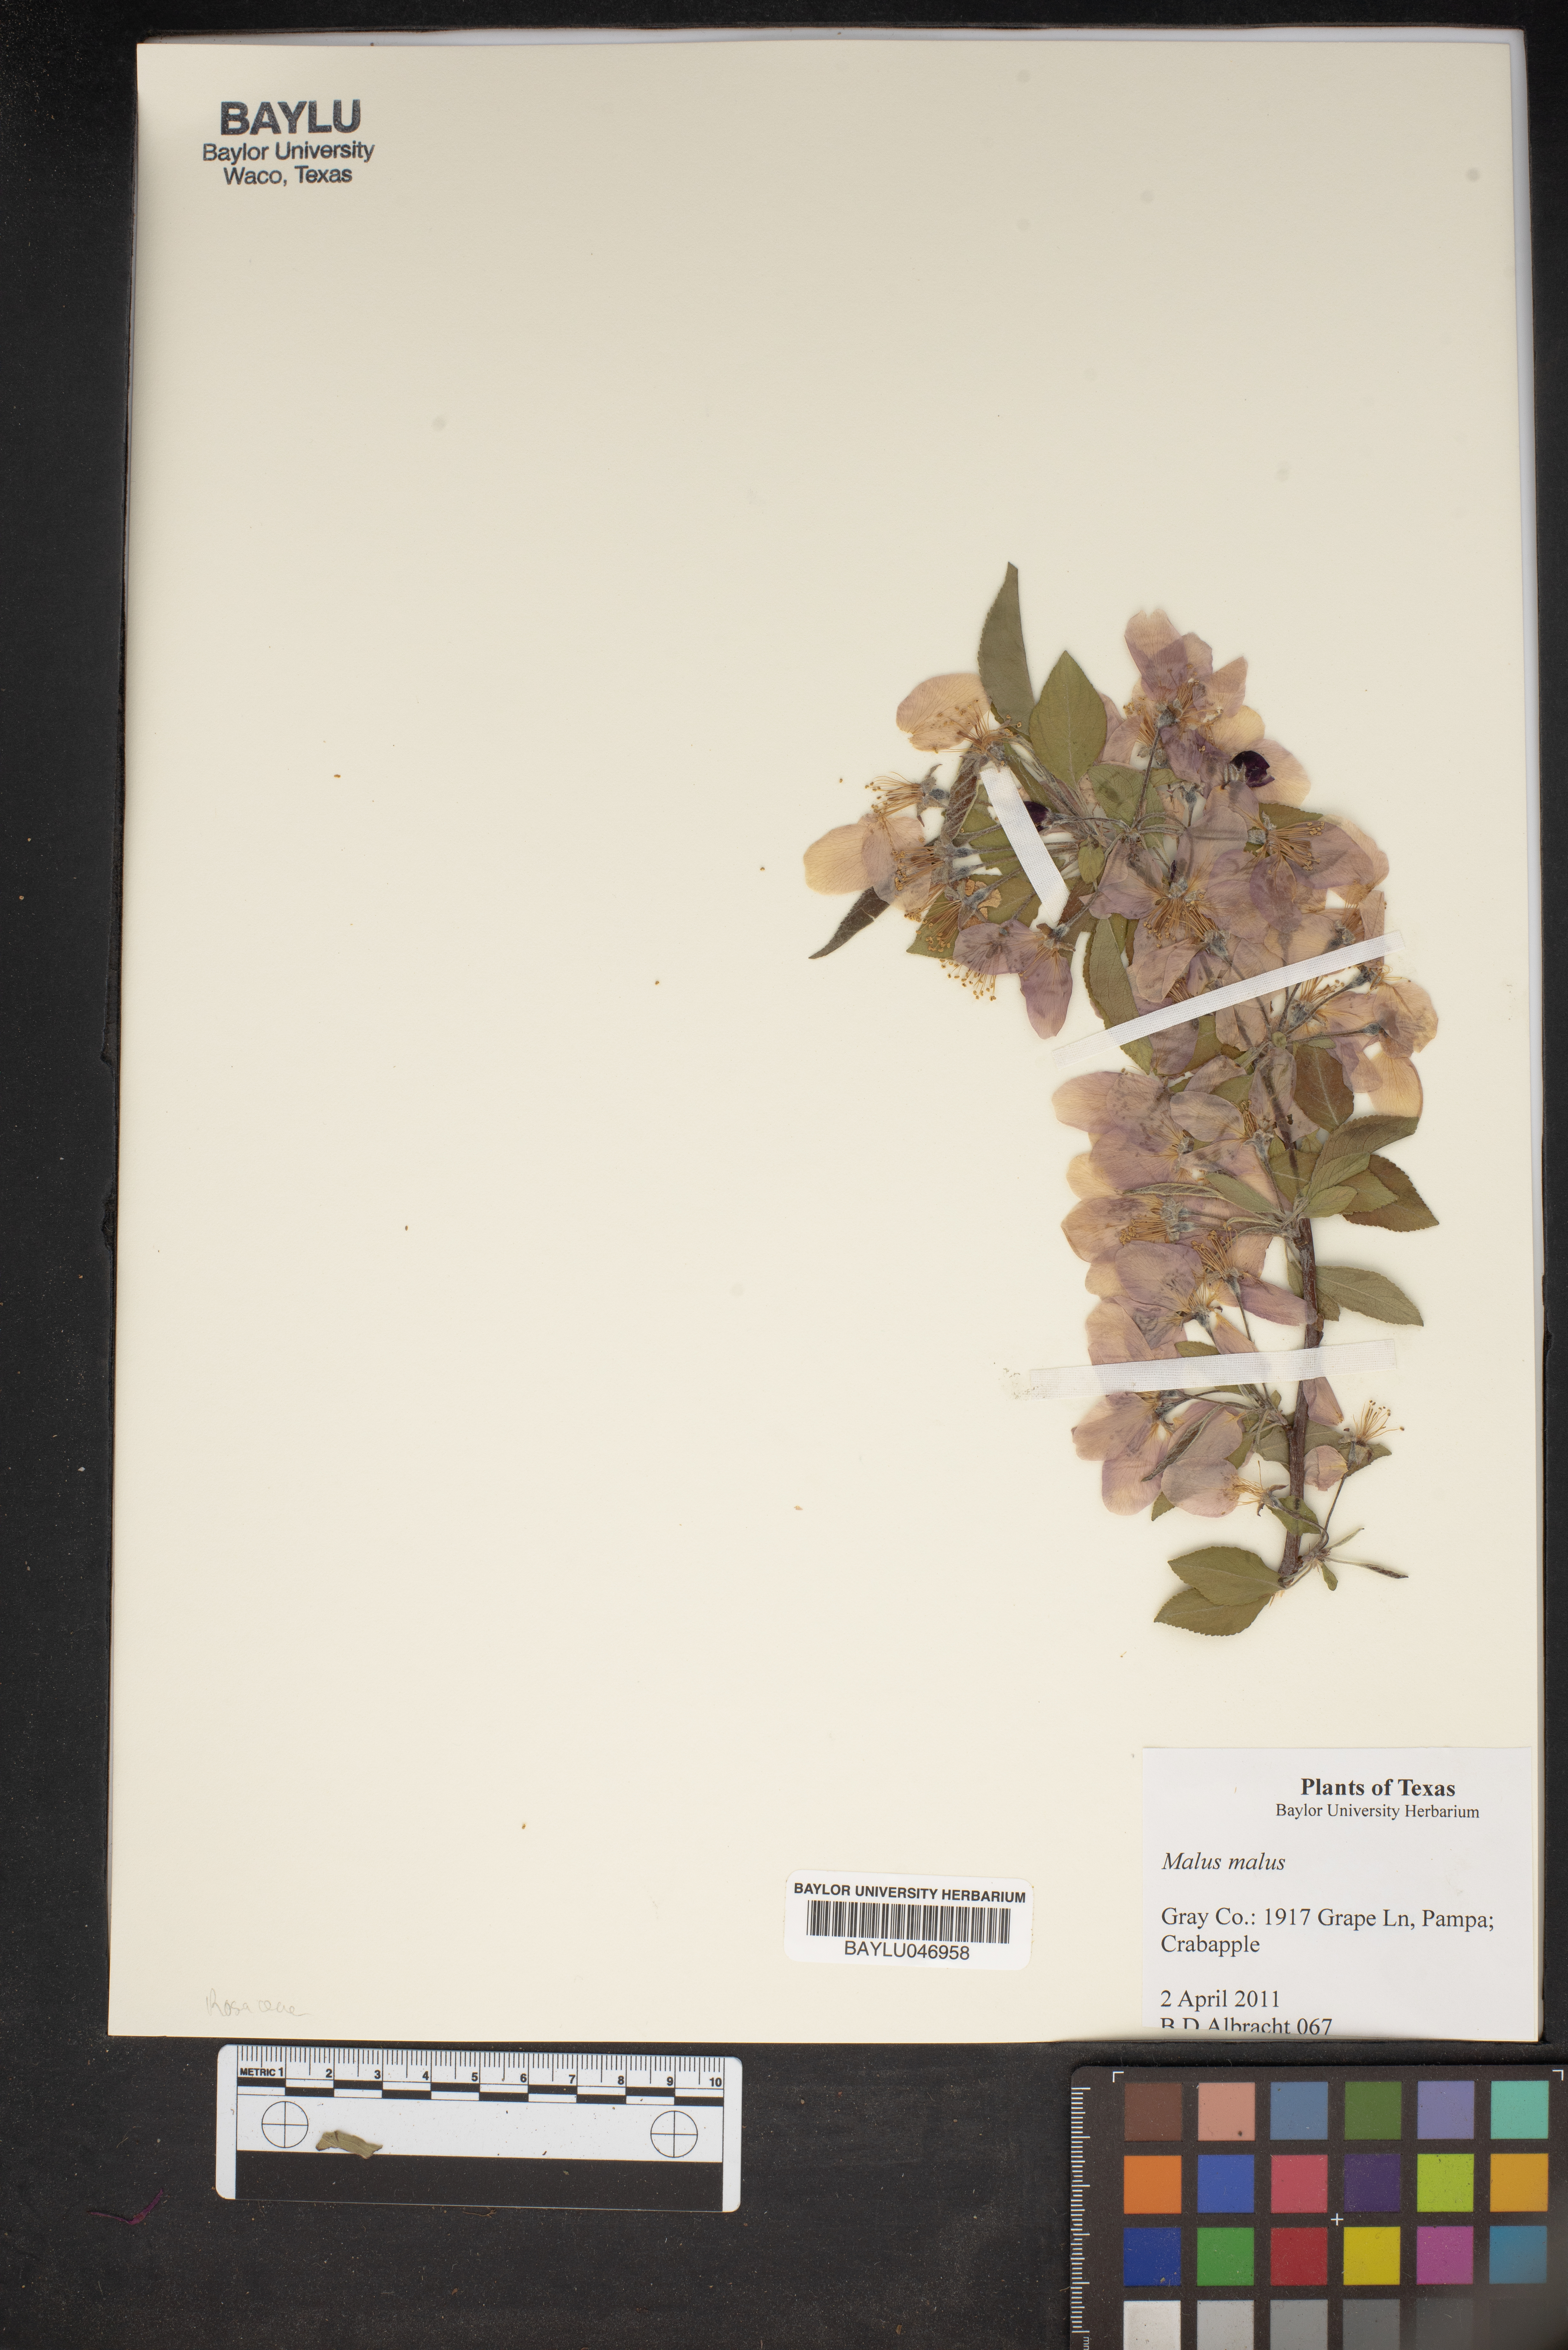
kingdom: Plantae
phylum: Tracheophyta
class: Magnoliopsida
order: Rosales
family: Rosaceae
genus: Malus
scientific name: Malus
